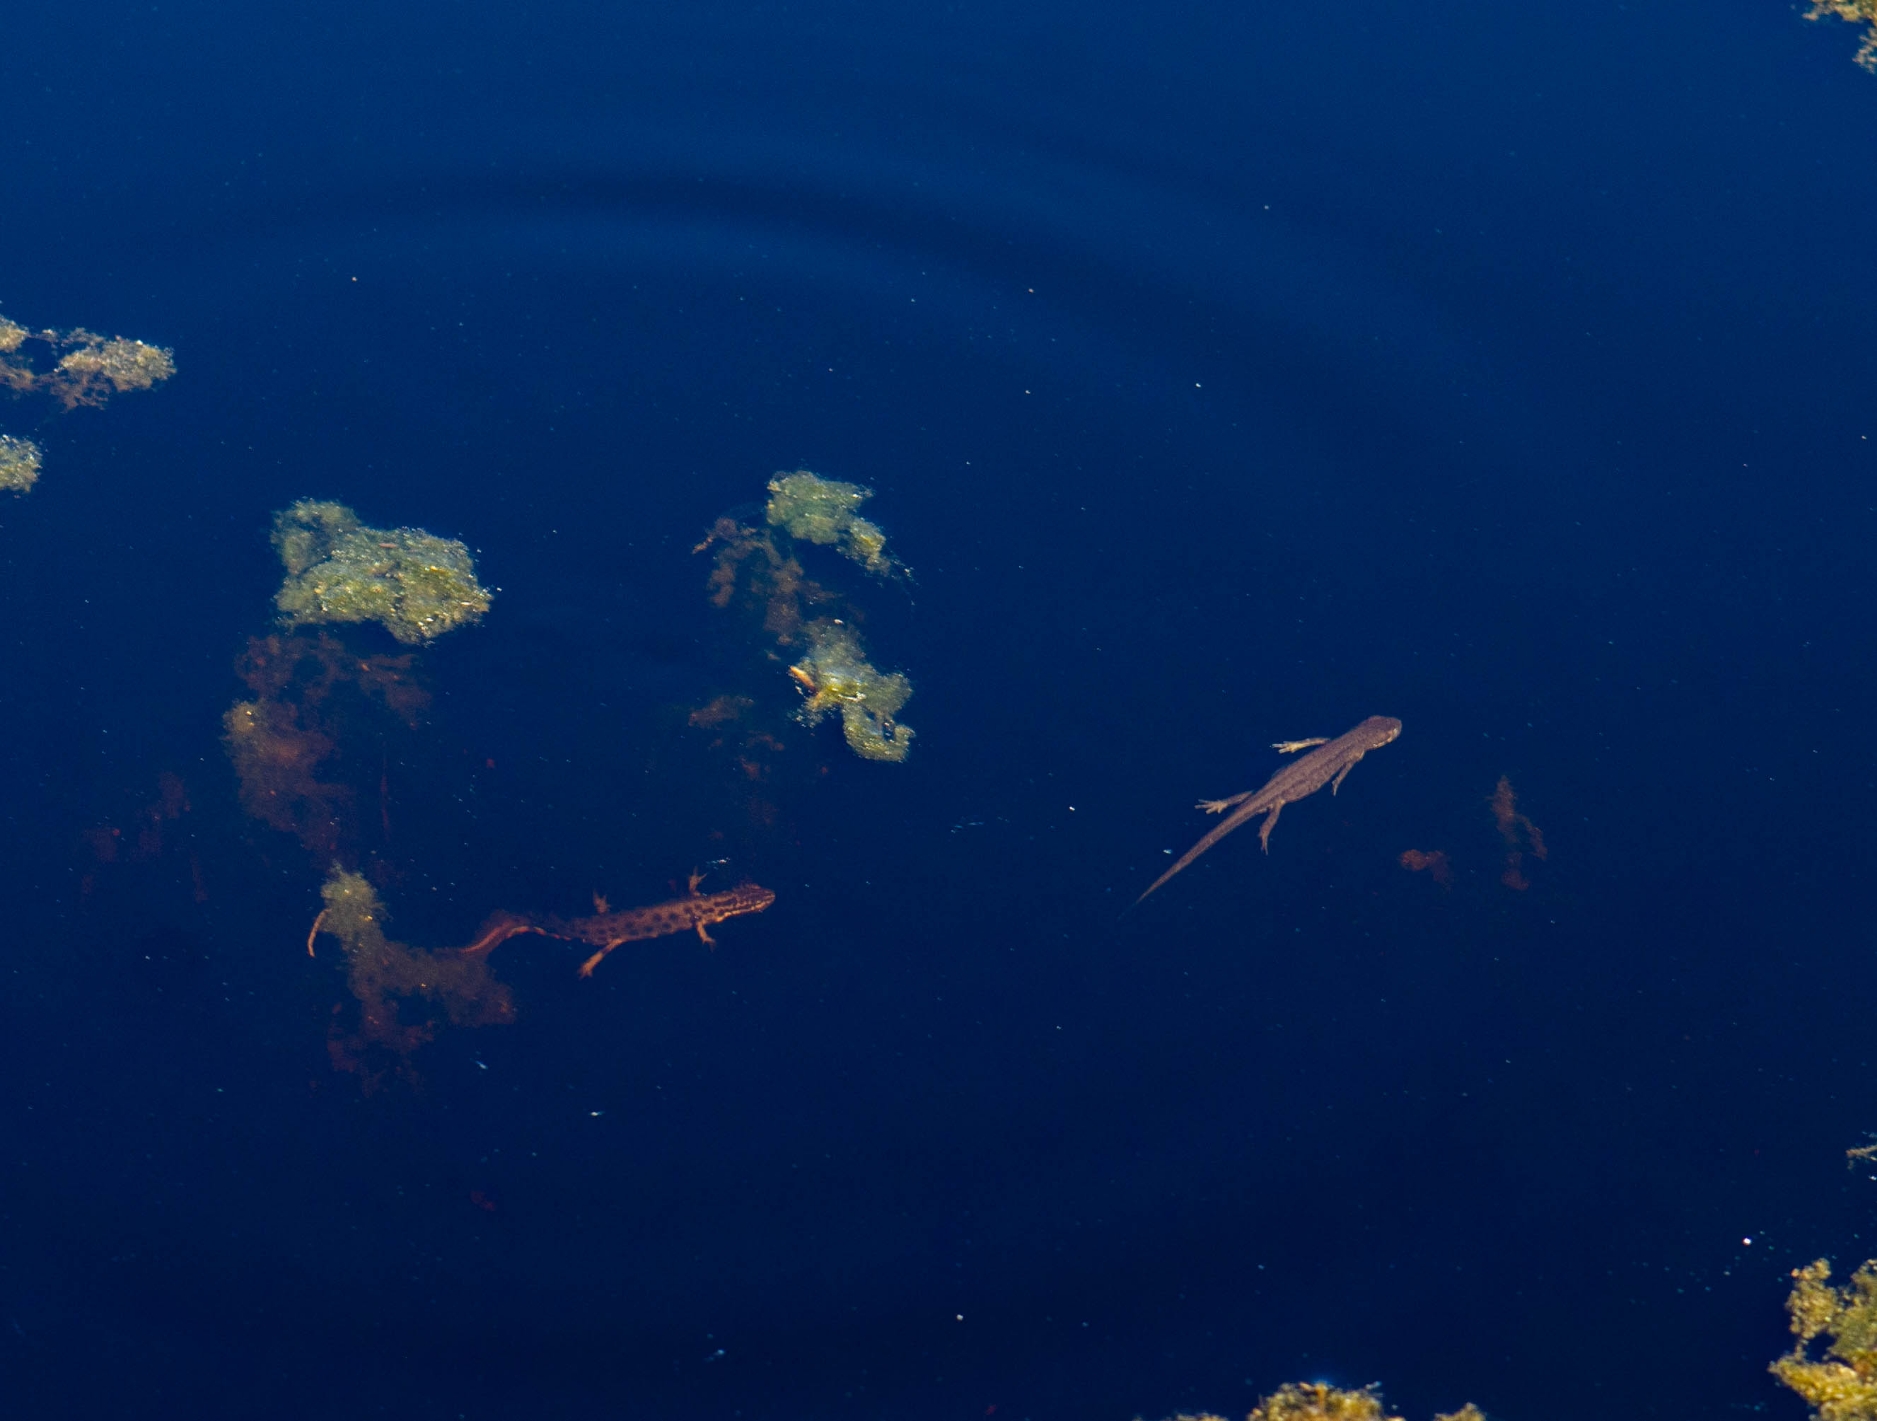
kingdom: Animalia
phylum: Chordata
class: Amphibia
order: Caudata
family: Salamandridae
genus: Lissotriton
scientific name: Lissotriton vulgaris
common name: Lille vandsalamander
